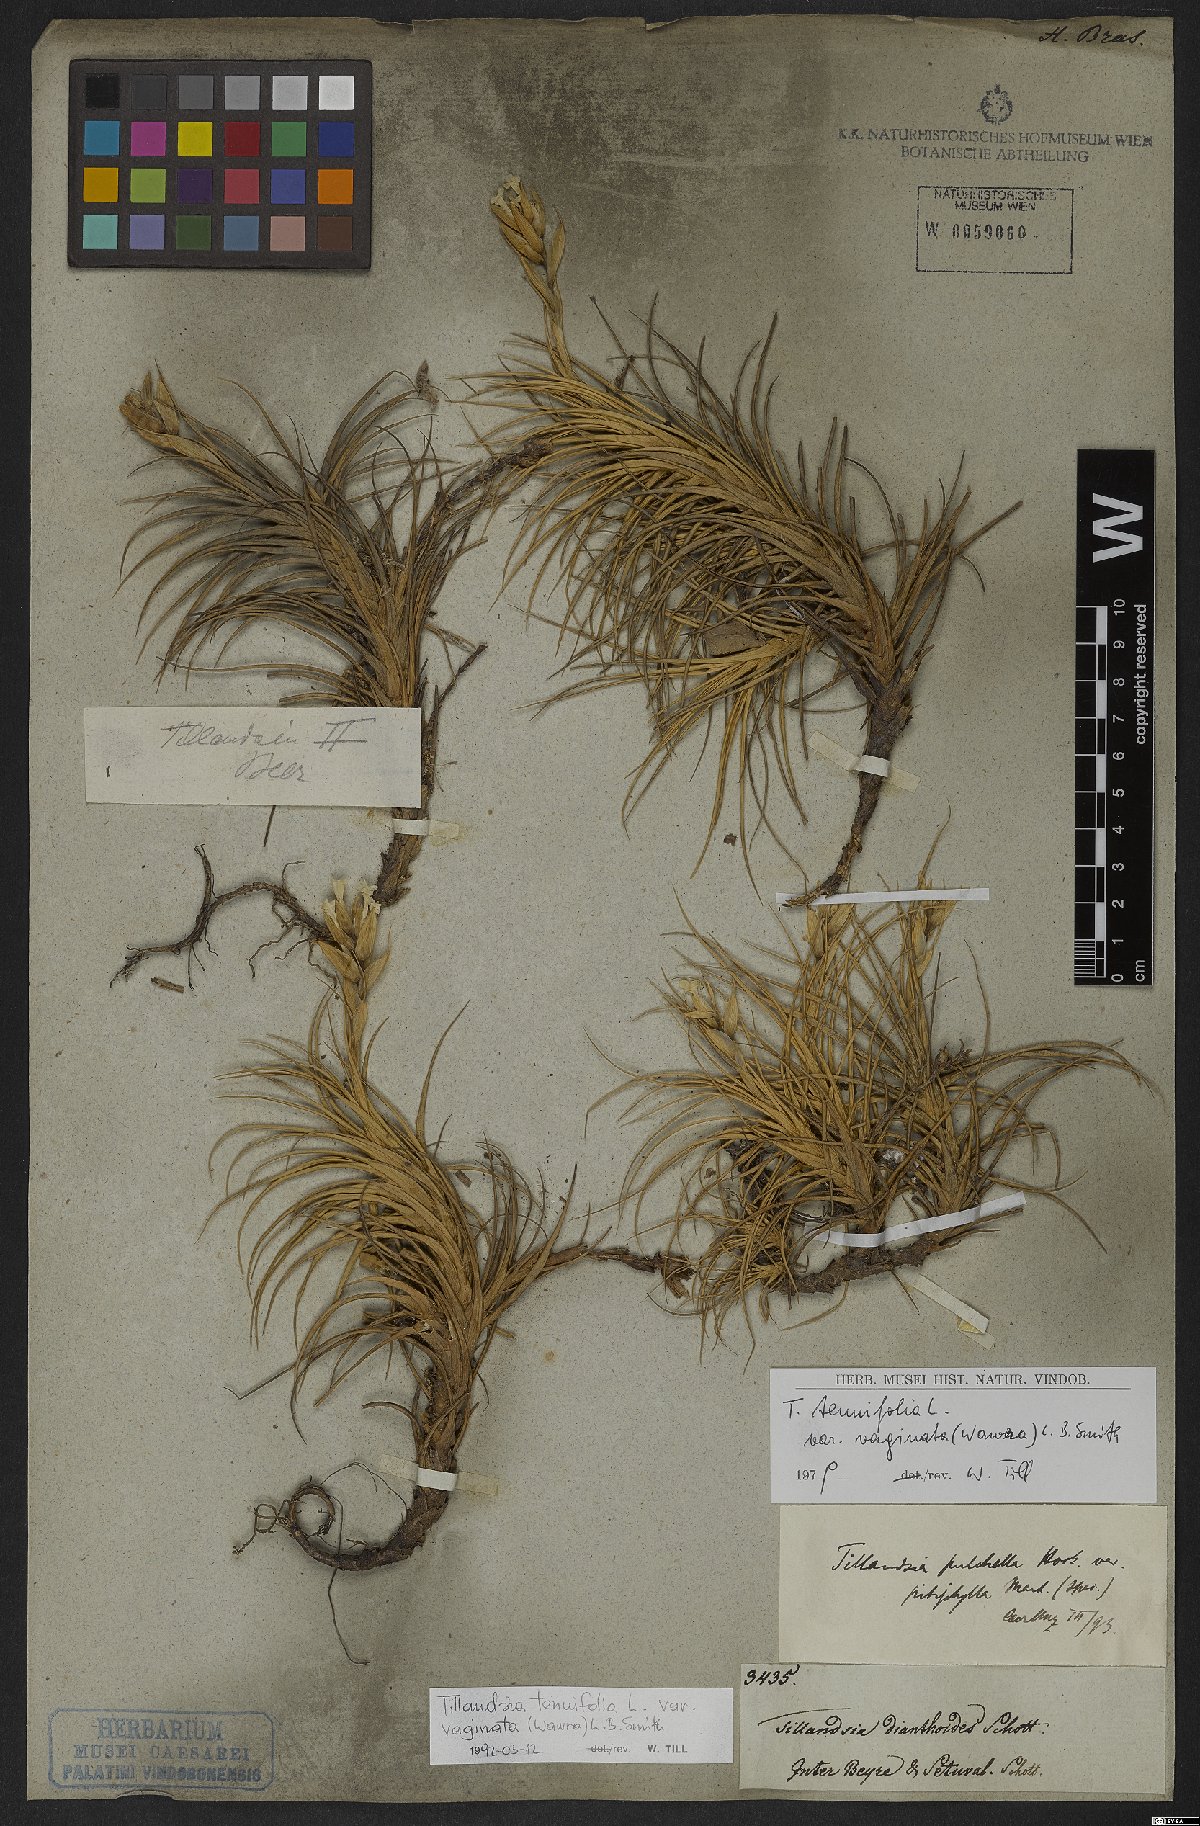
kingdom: Plantae
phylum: Tracheophyta
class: Liliopsida
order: Poales
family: Bromeliaceae
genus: Tillandsia
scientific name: Tillandsia tenuifolia
